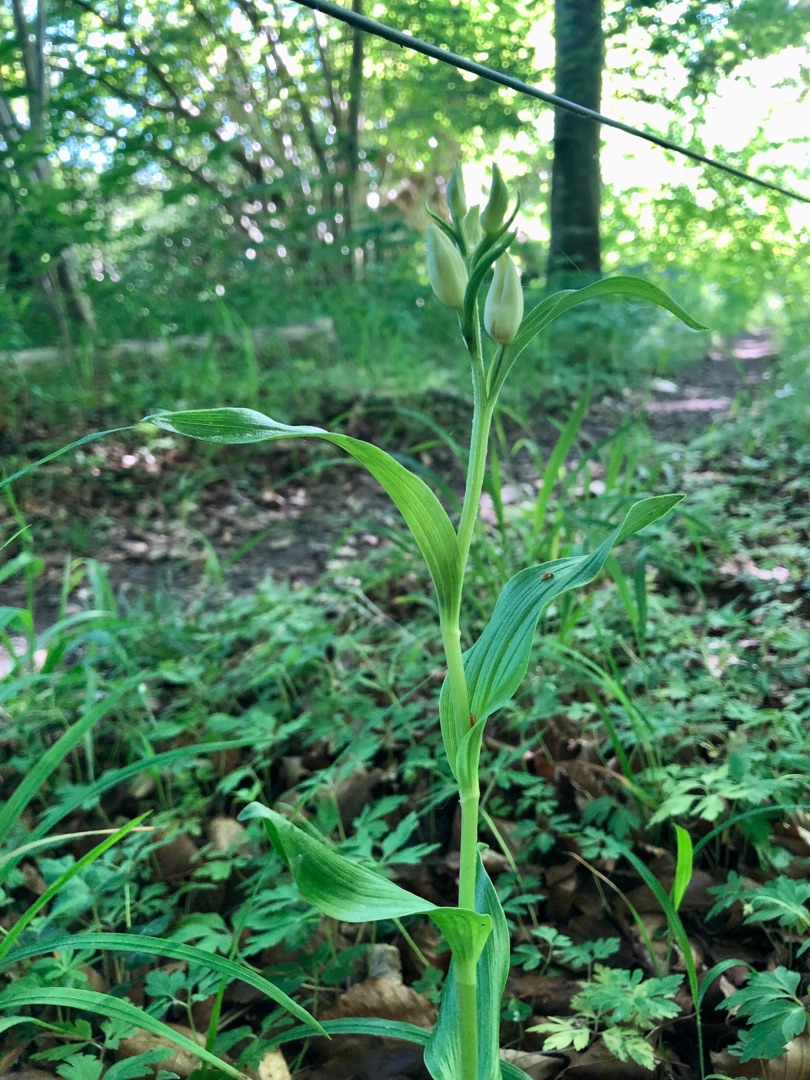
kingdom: Plantae
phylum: Tracheophyta
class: Liliopsida
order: Asparagales
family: Orchidaceae
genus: Cephalanthera
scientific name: Cephalanthera damasonium
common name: Hvidgul skovlilje
